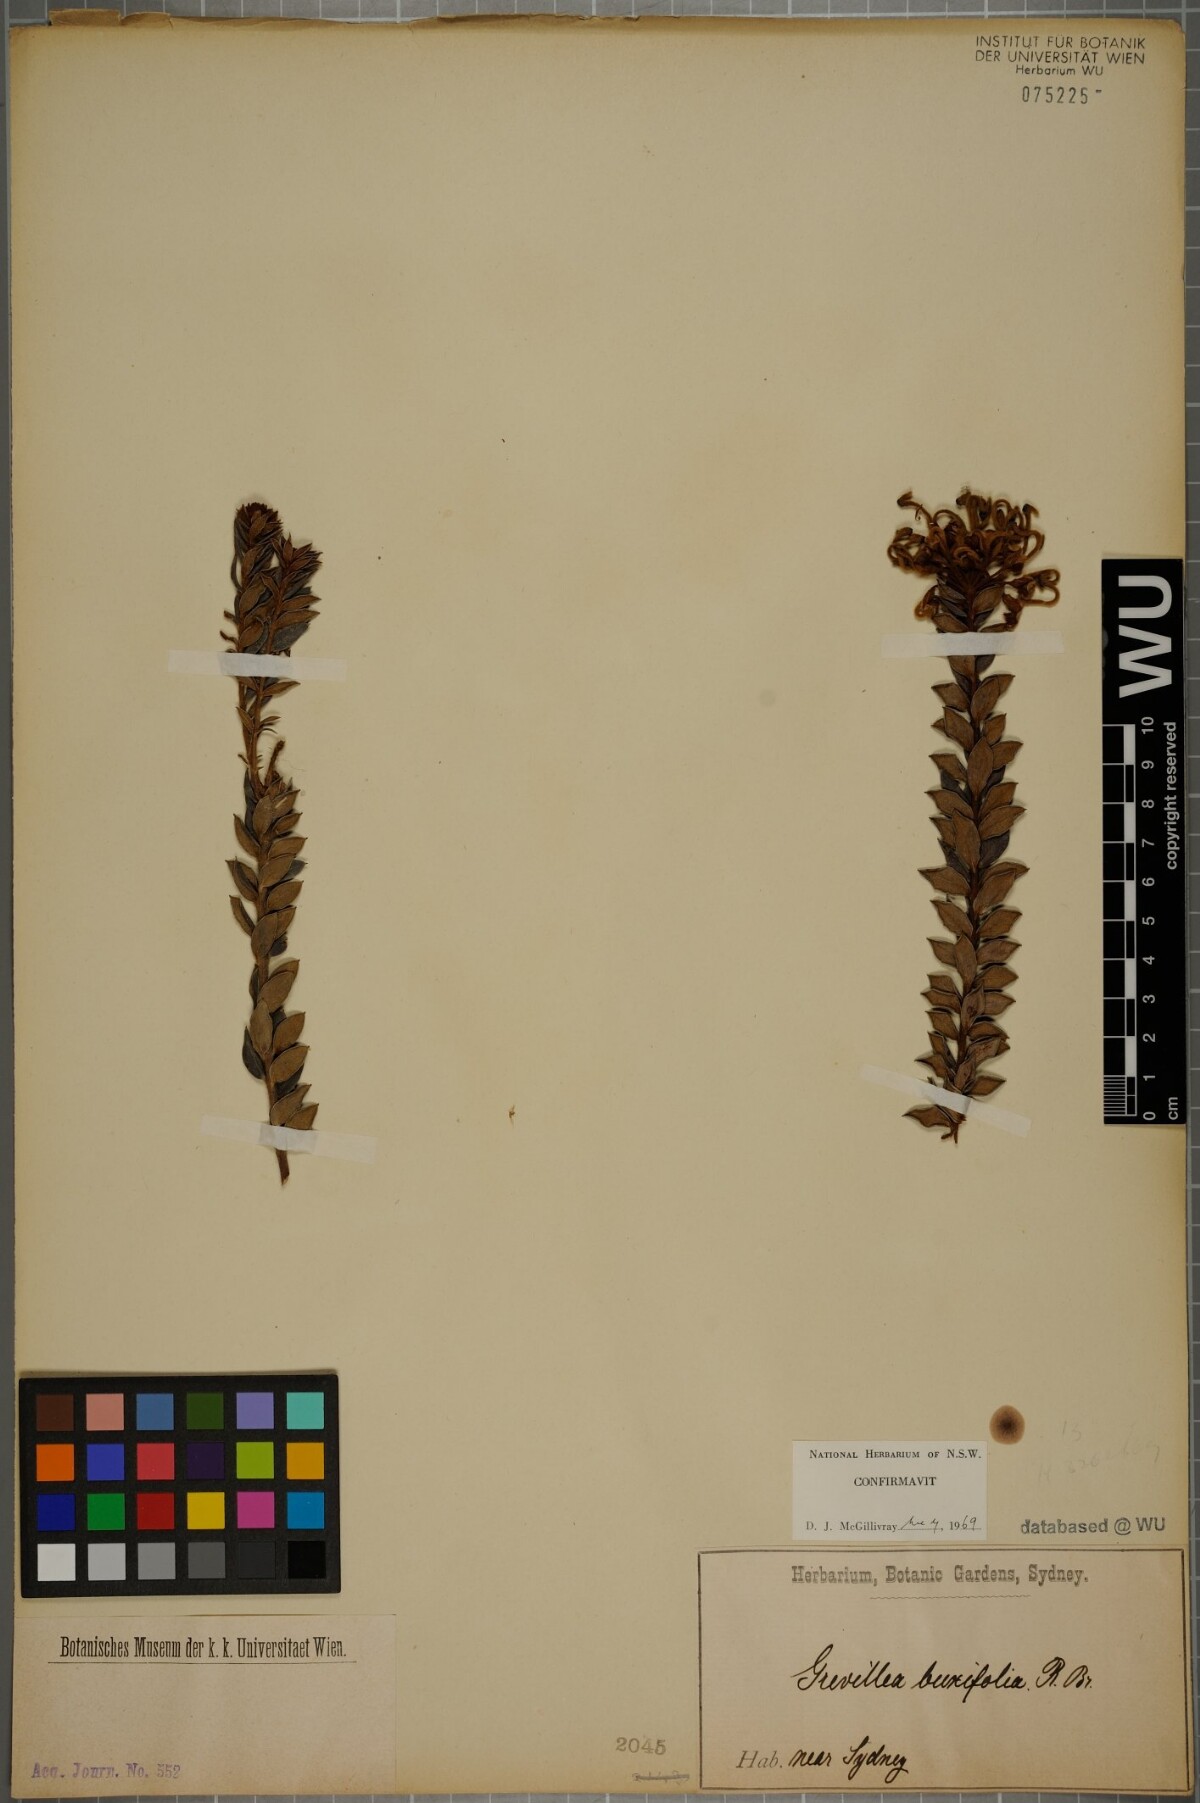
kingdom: Plantae
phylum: Tracheophyta
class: Magnoliopsida
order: Proteales
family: Proteaceae
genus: Grevillea
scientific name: Grevillea buxifolia
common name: Grey spiderflower
